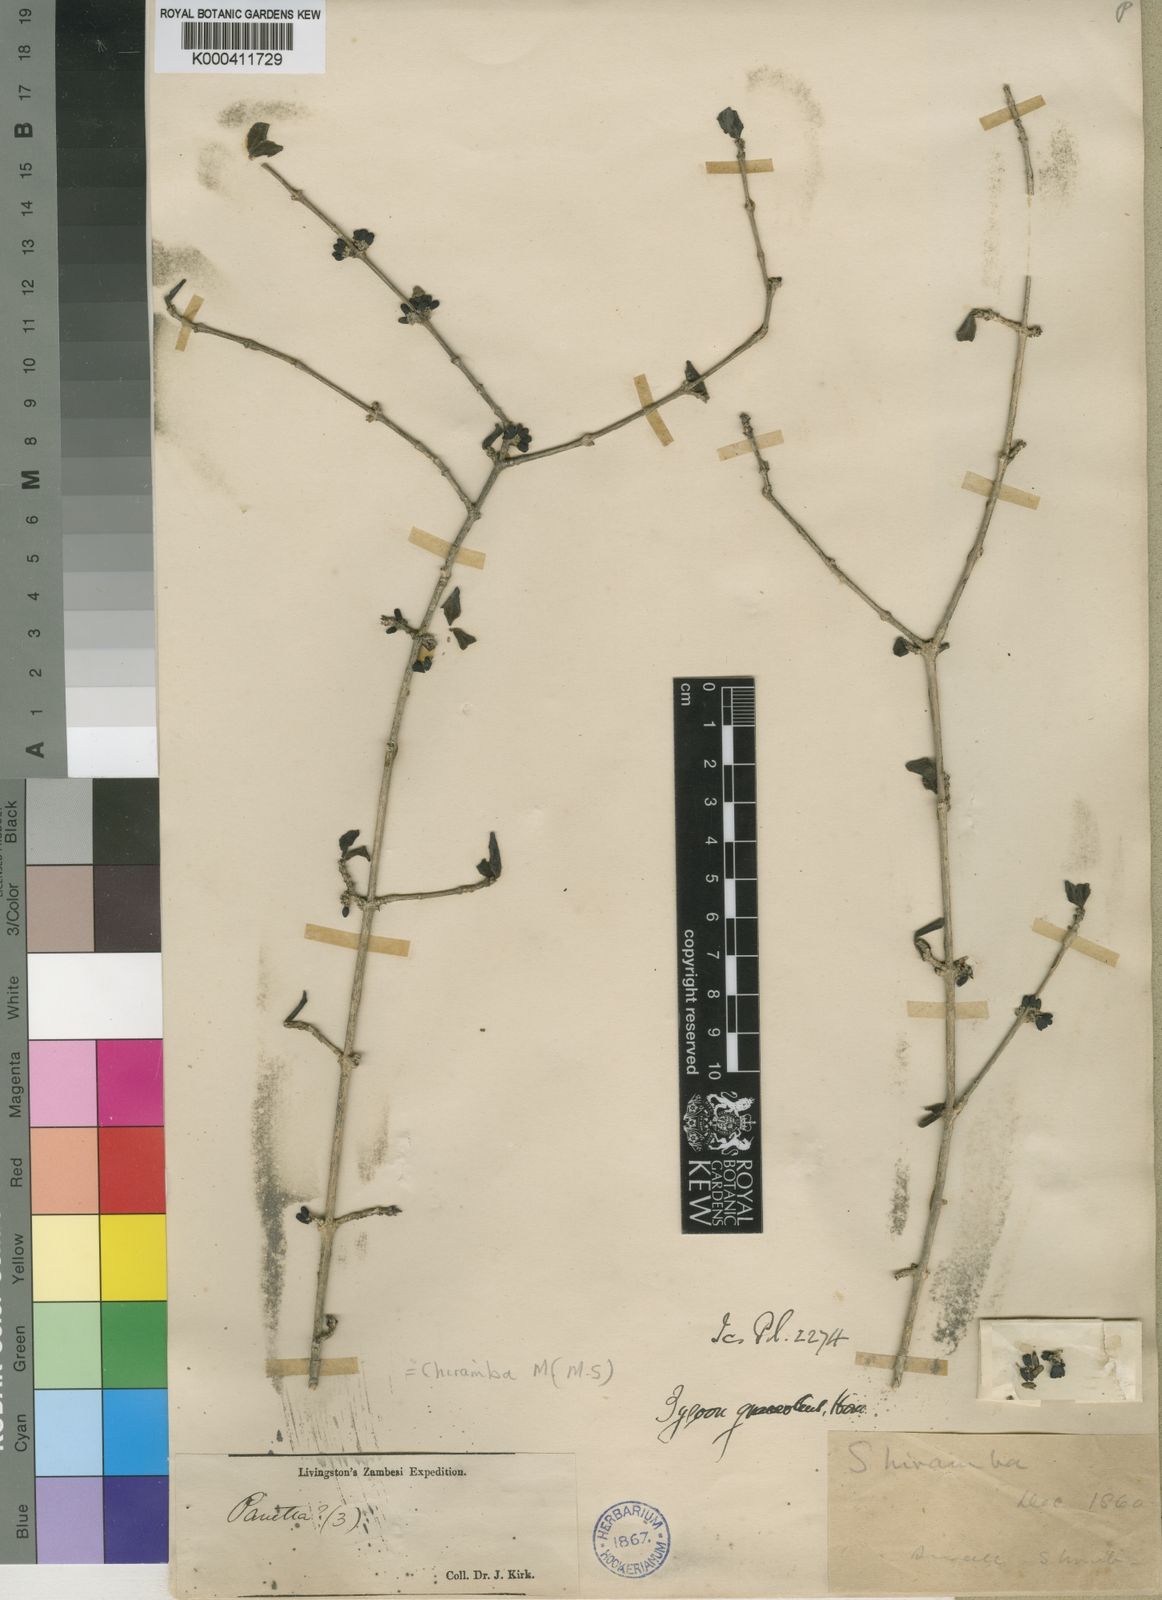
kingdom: Plantae
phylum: Tracheophyta
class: Magnoliopsida
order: Gentianales
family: Rubiaceae
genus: Coptosperma
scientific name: Coptosperma graveolens
